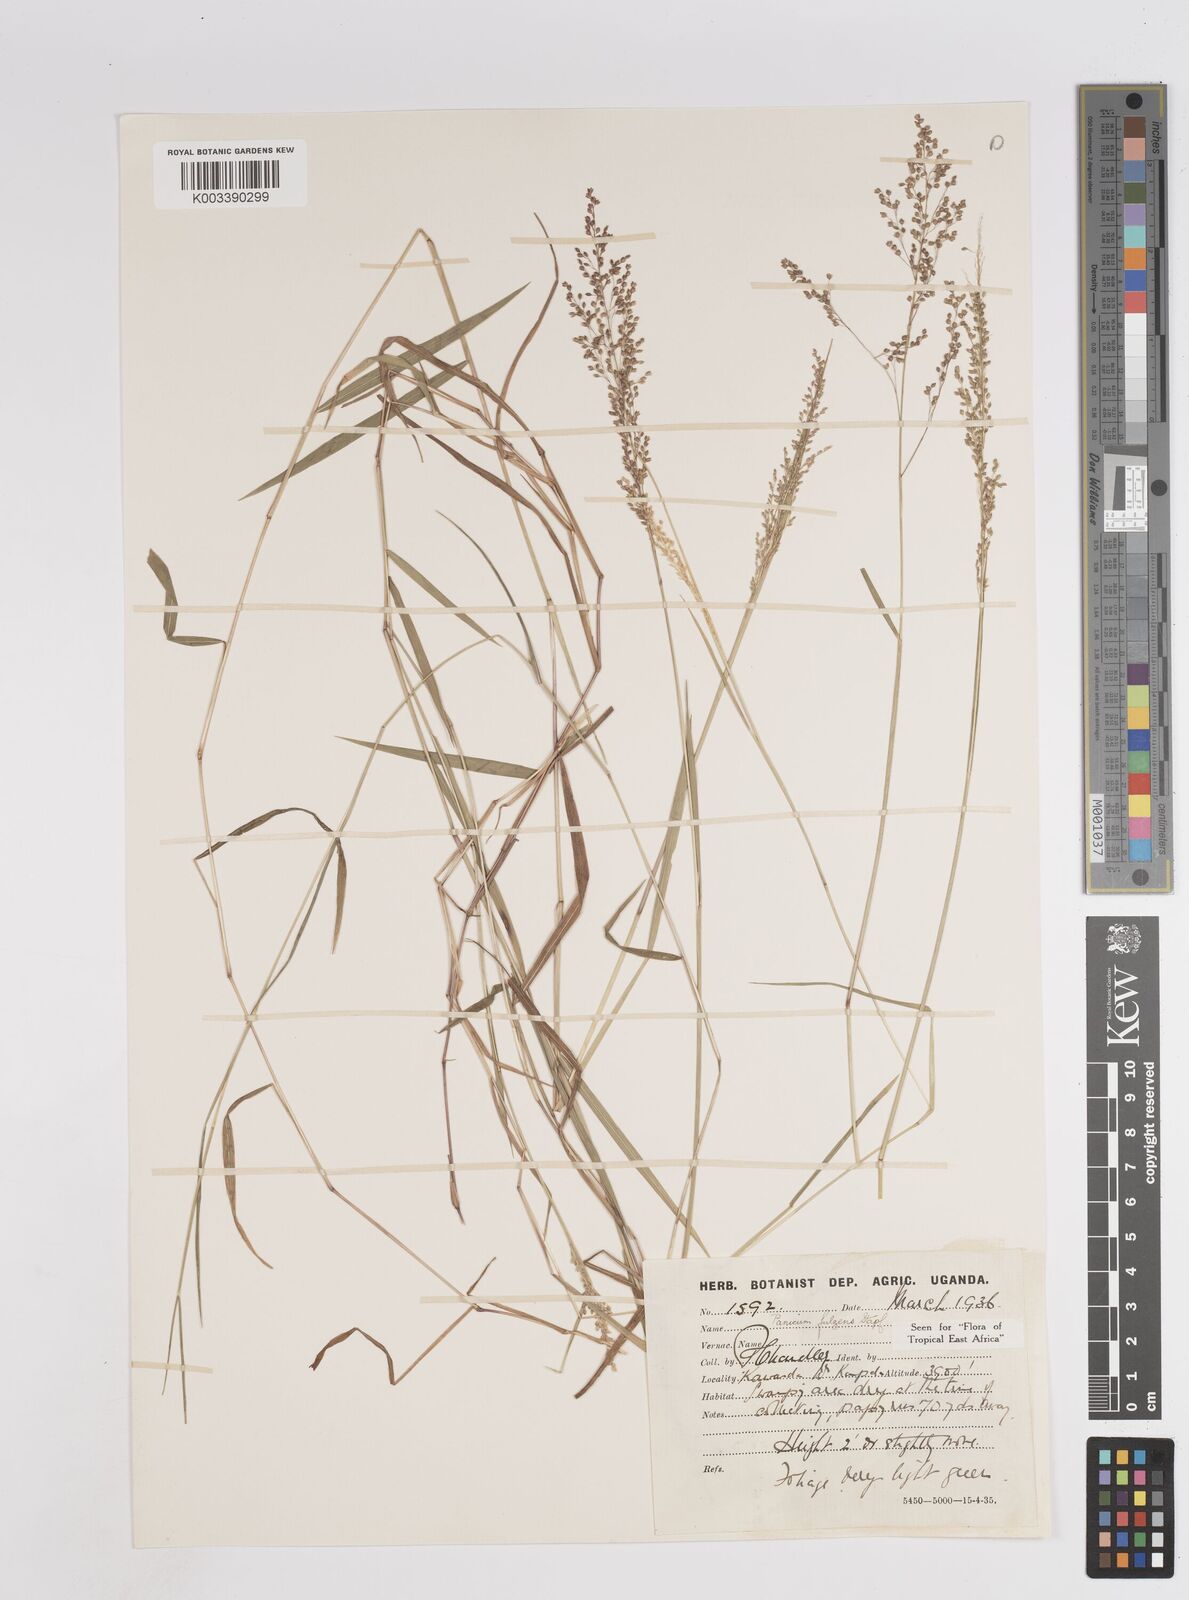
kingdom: Plantae
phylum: Tracheophyta
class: Liliopsida
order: Poales
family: Poaceae
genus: Trichanthecium
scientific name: Trichanthecium nervatum
